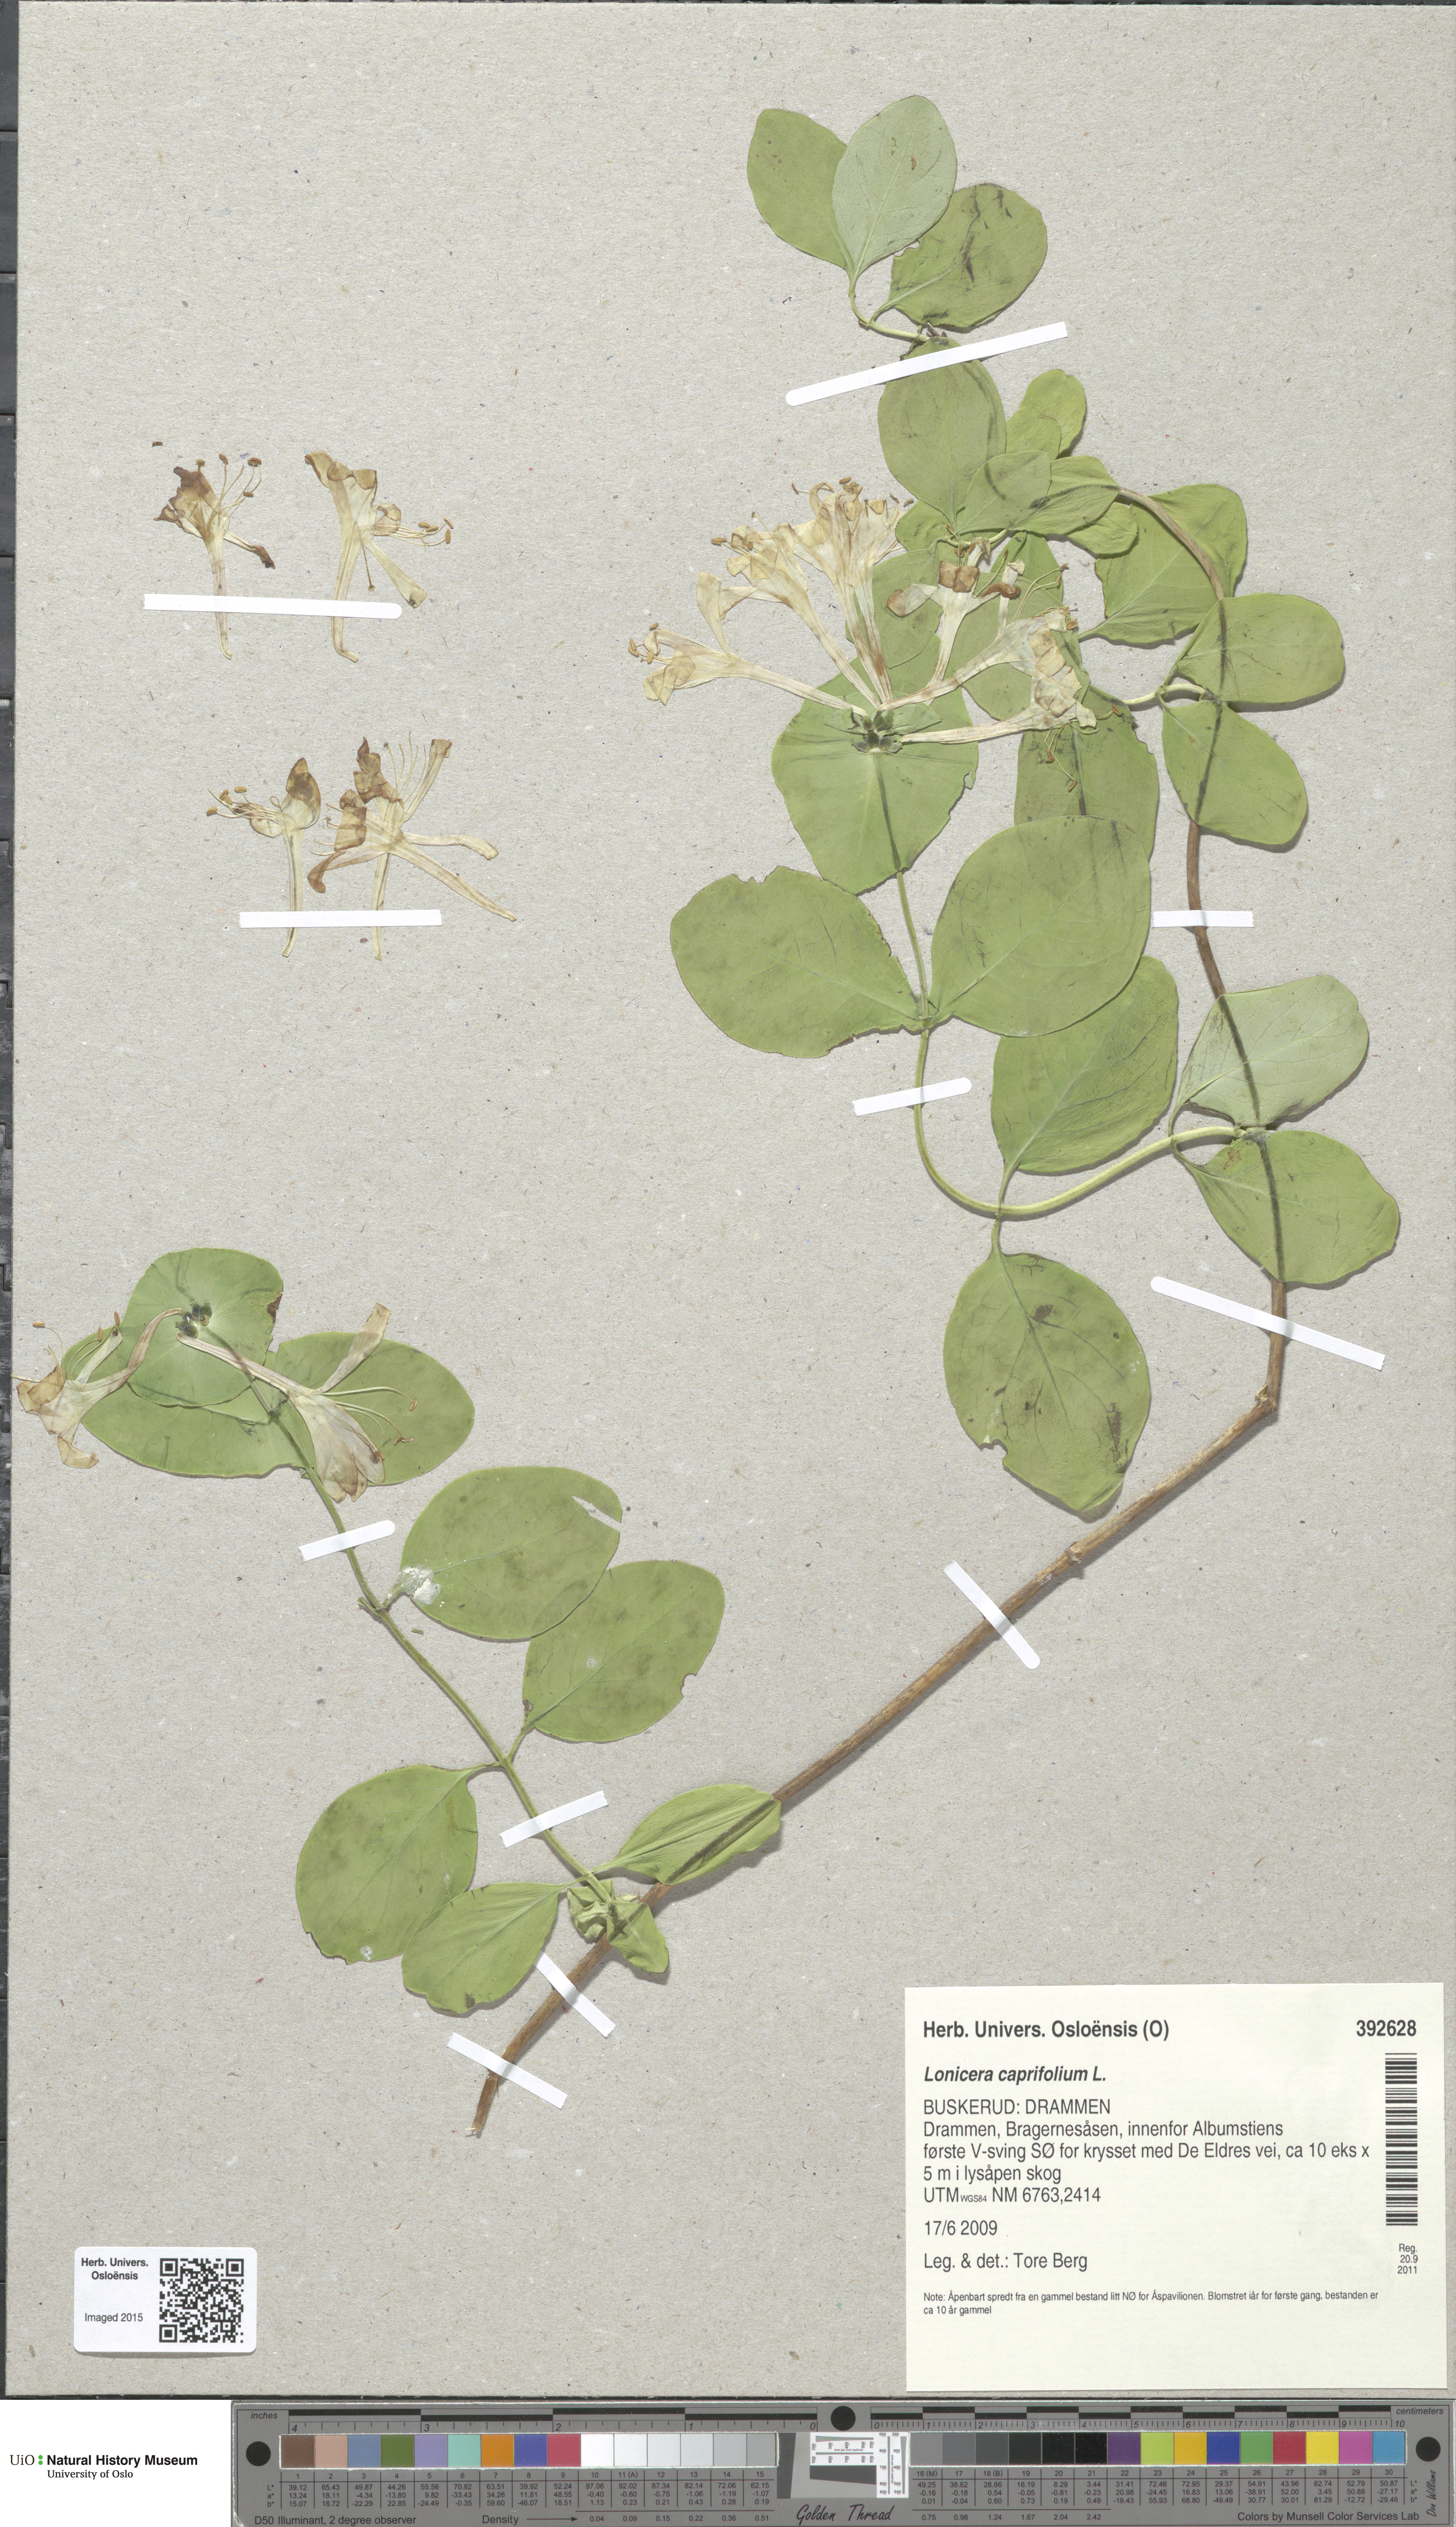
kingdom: Plantae
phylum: Tracheophyta
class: Magnoliopsida
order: Dipsacales
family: Caprifoliaceae
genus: Lonicera
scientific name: Lonicera caprifolium
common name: Perfoliate honeysuckle
